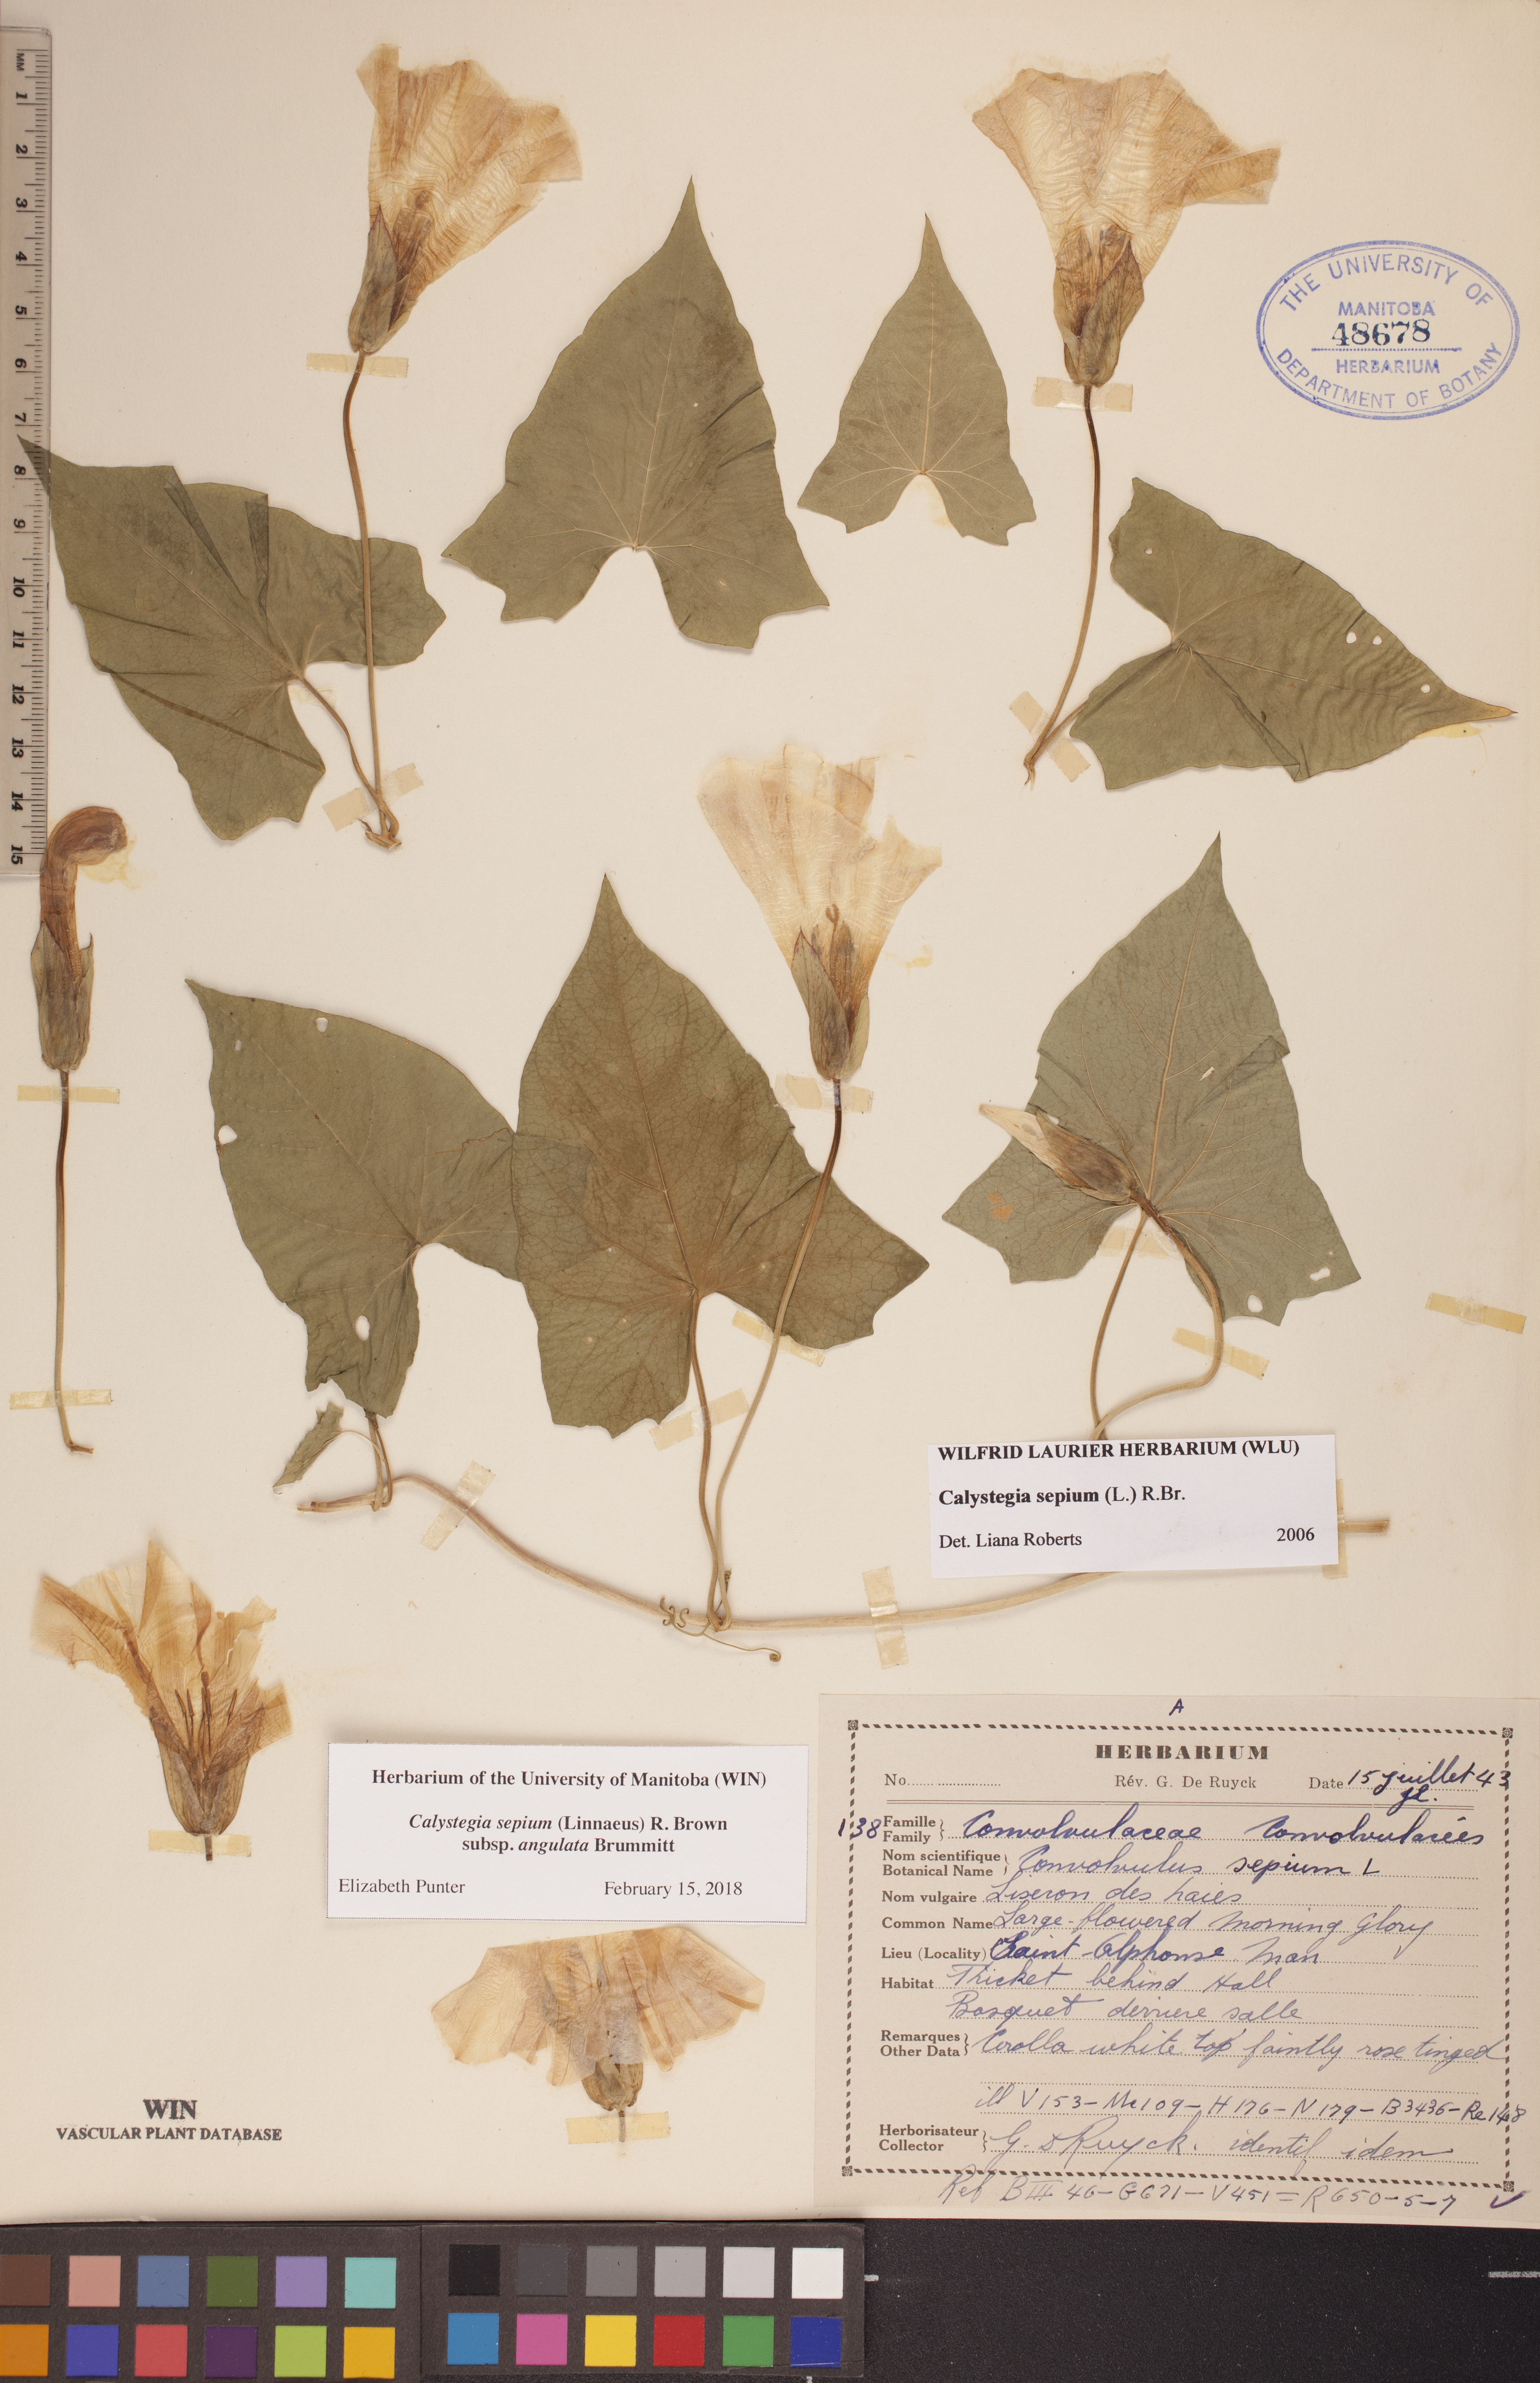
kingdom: Plantae
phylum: Tracheophyta
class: Magnoliopsida
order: Solanales
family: Convolvulaceae
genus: Calystegia
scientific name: Calystegia sepium
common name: Hedge bindweed
